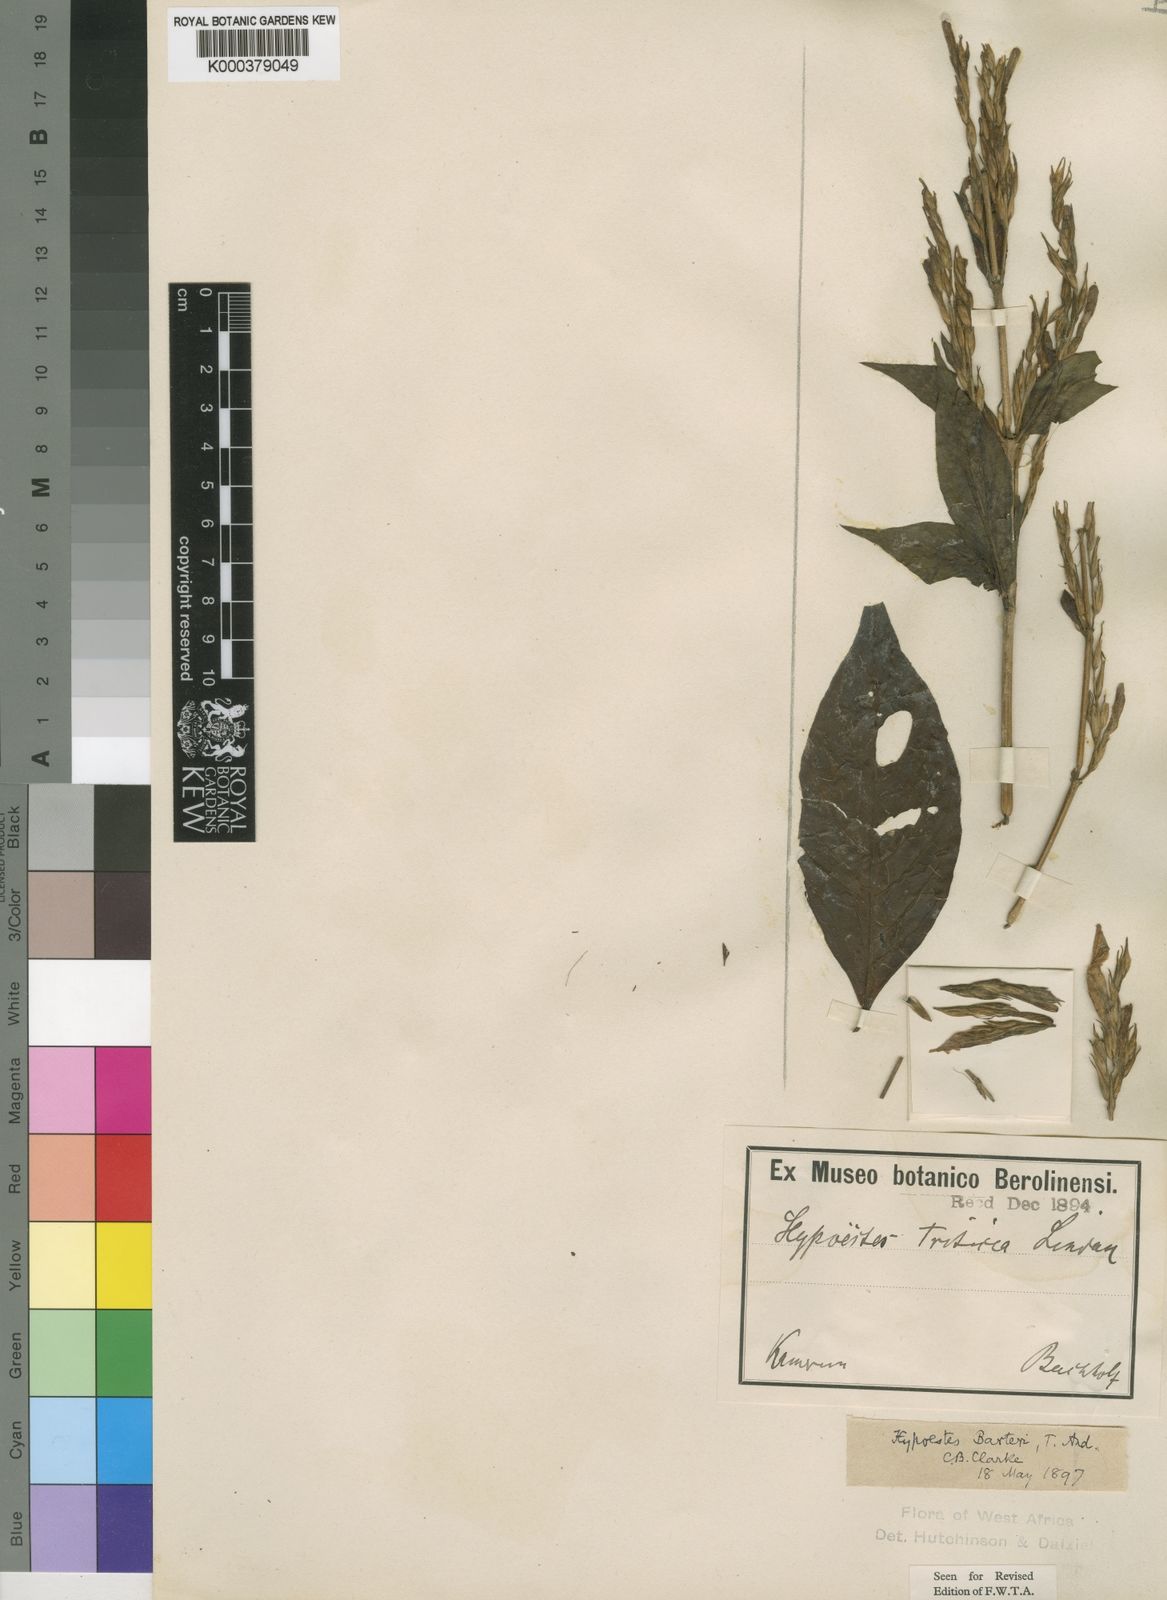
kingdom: Plantae
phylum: Tracheophyta
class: Magnoliopsida
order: Lamiales
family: Acanthaceae
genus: Hypoestes
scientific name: Hypoestes rosea
